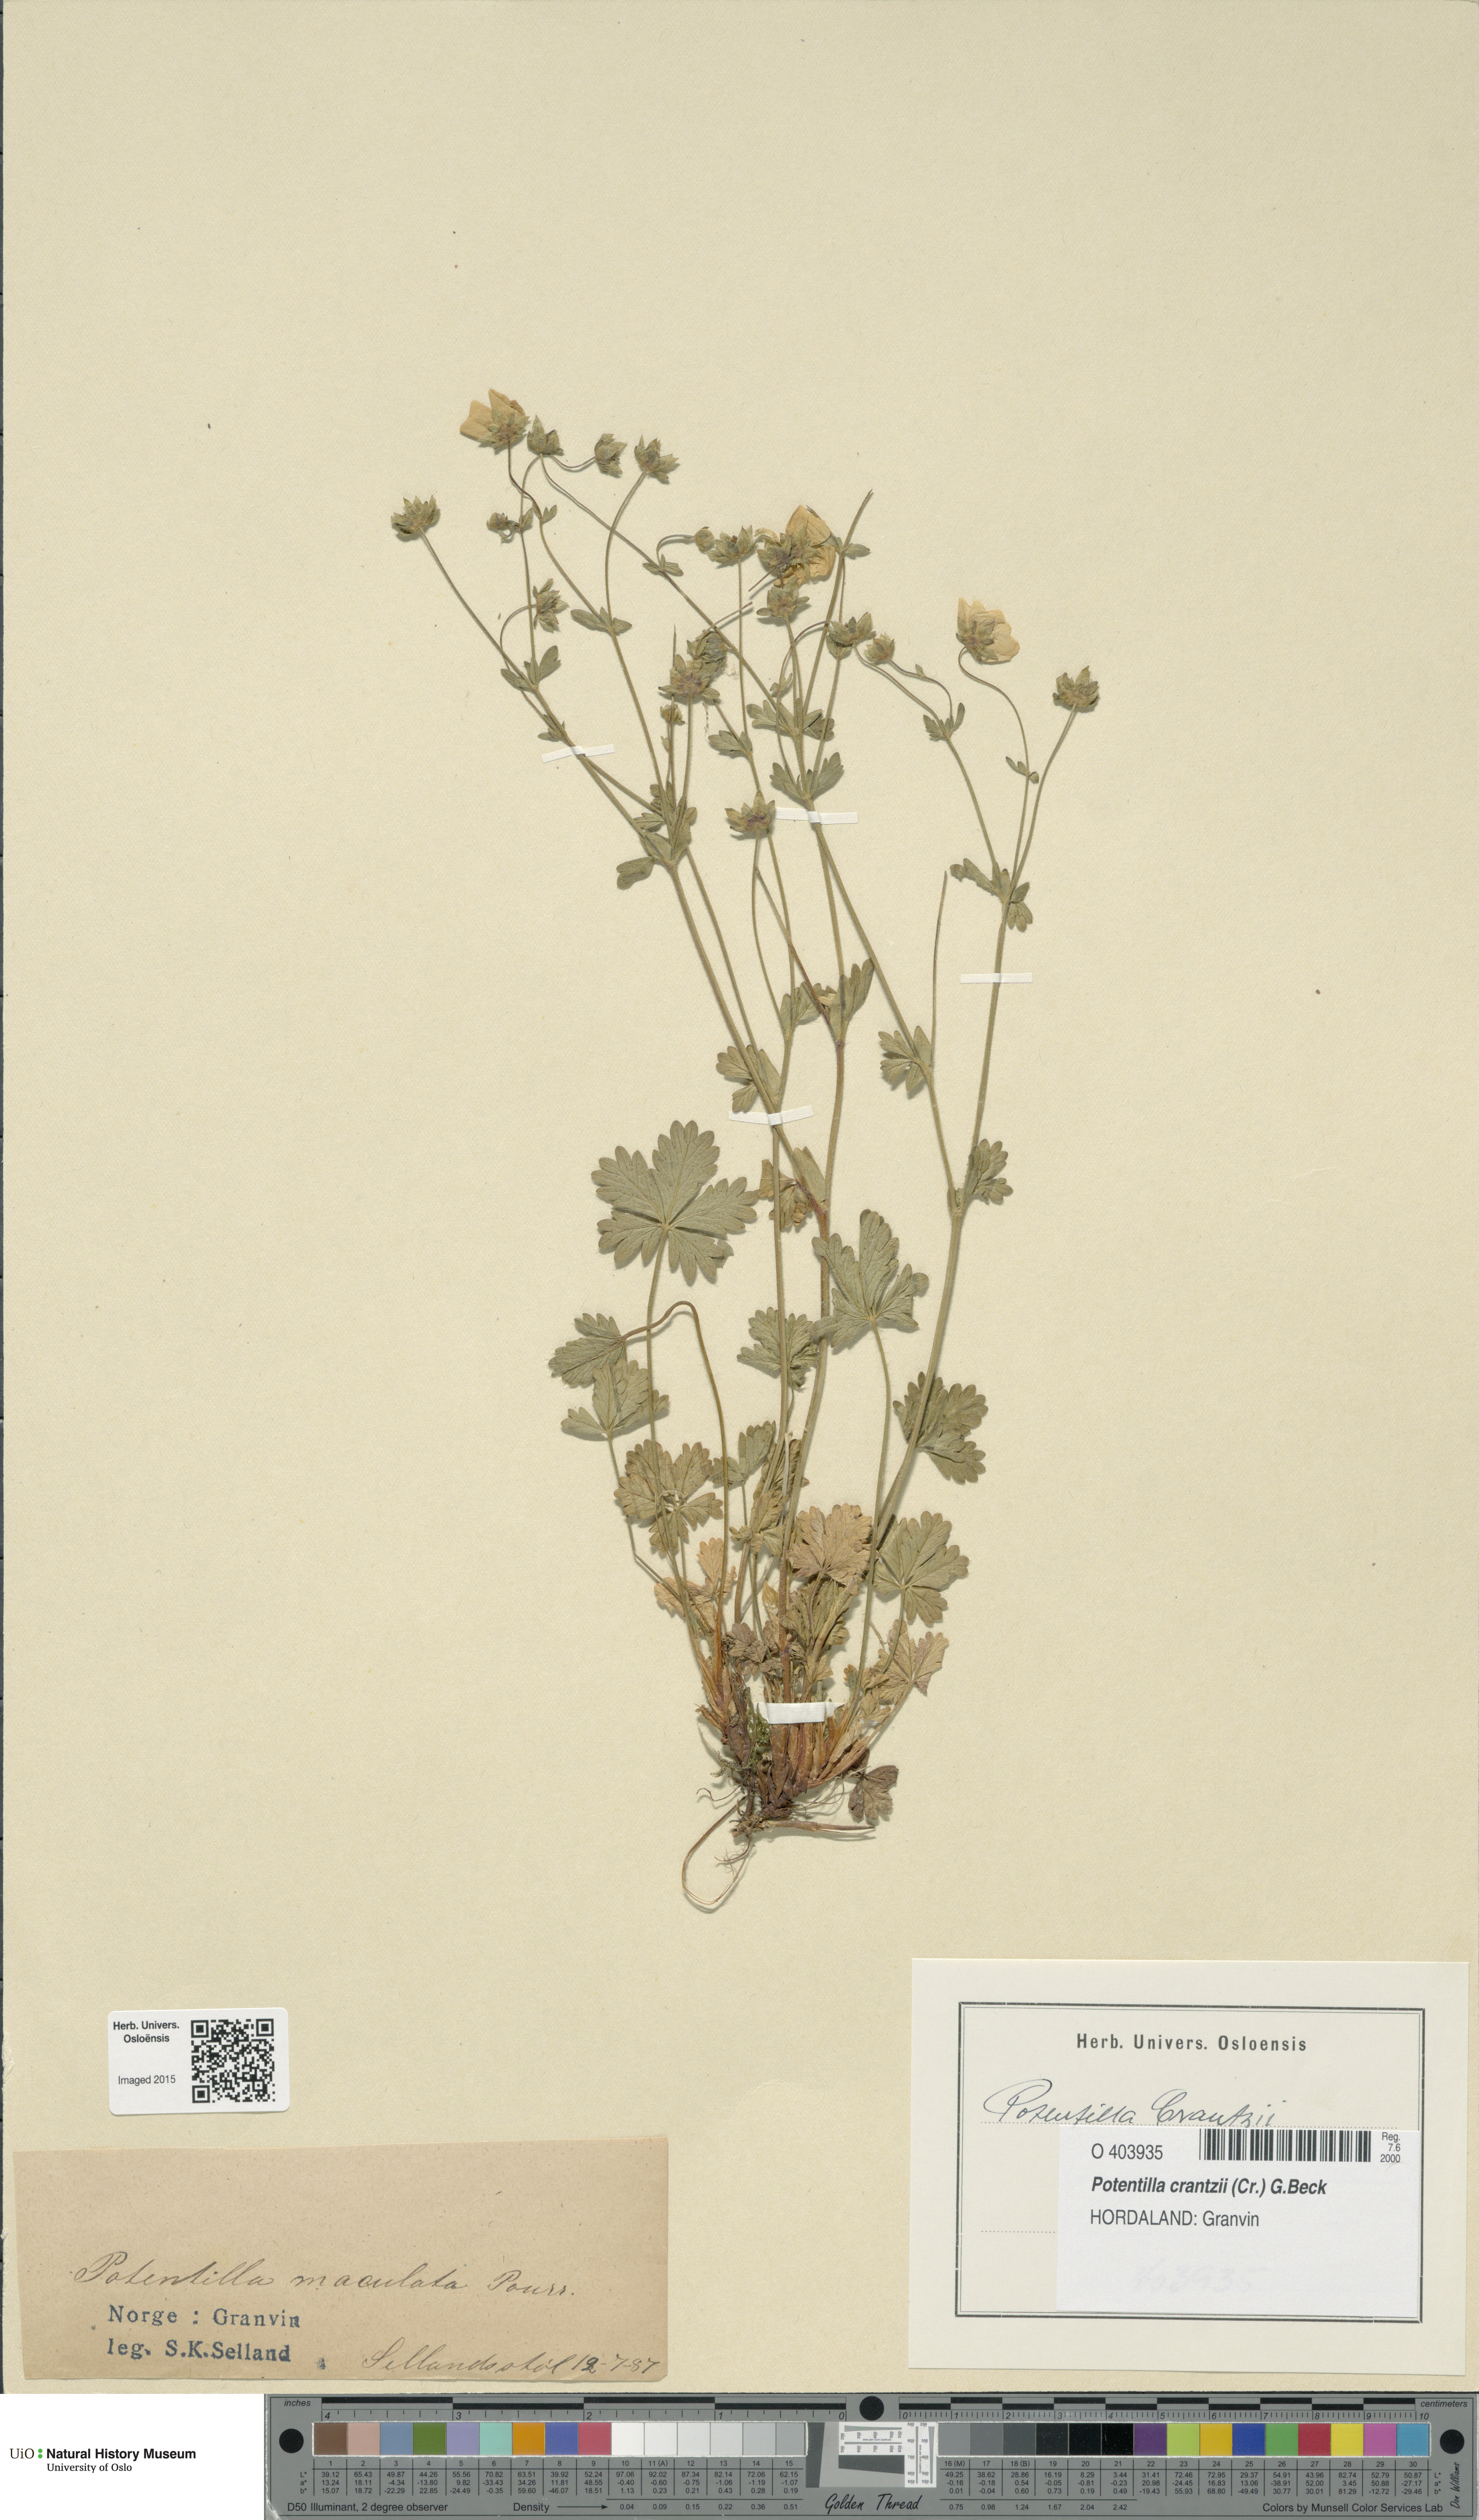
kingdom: Plantae
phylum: Tracheophyta
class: Magnoliopsida
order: Rosales
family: Rosaceae
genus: Potentilla
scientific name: Potentilla crantzii
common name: Alpine cinquefoil
